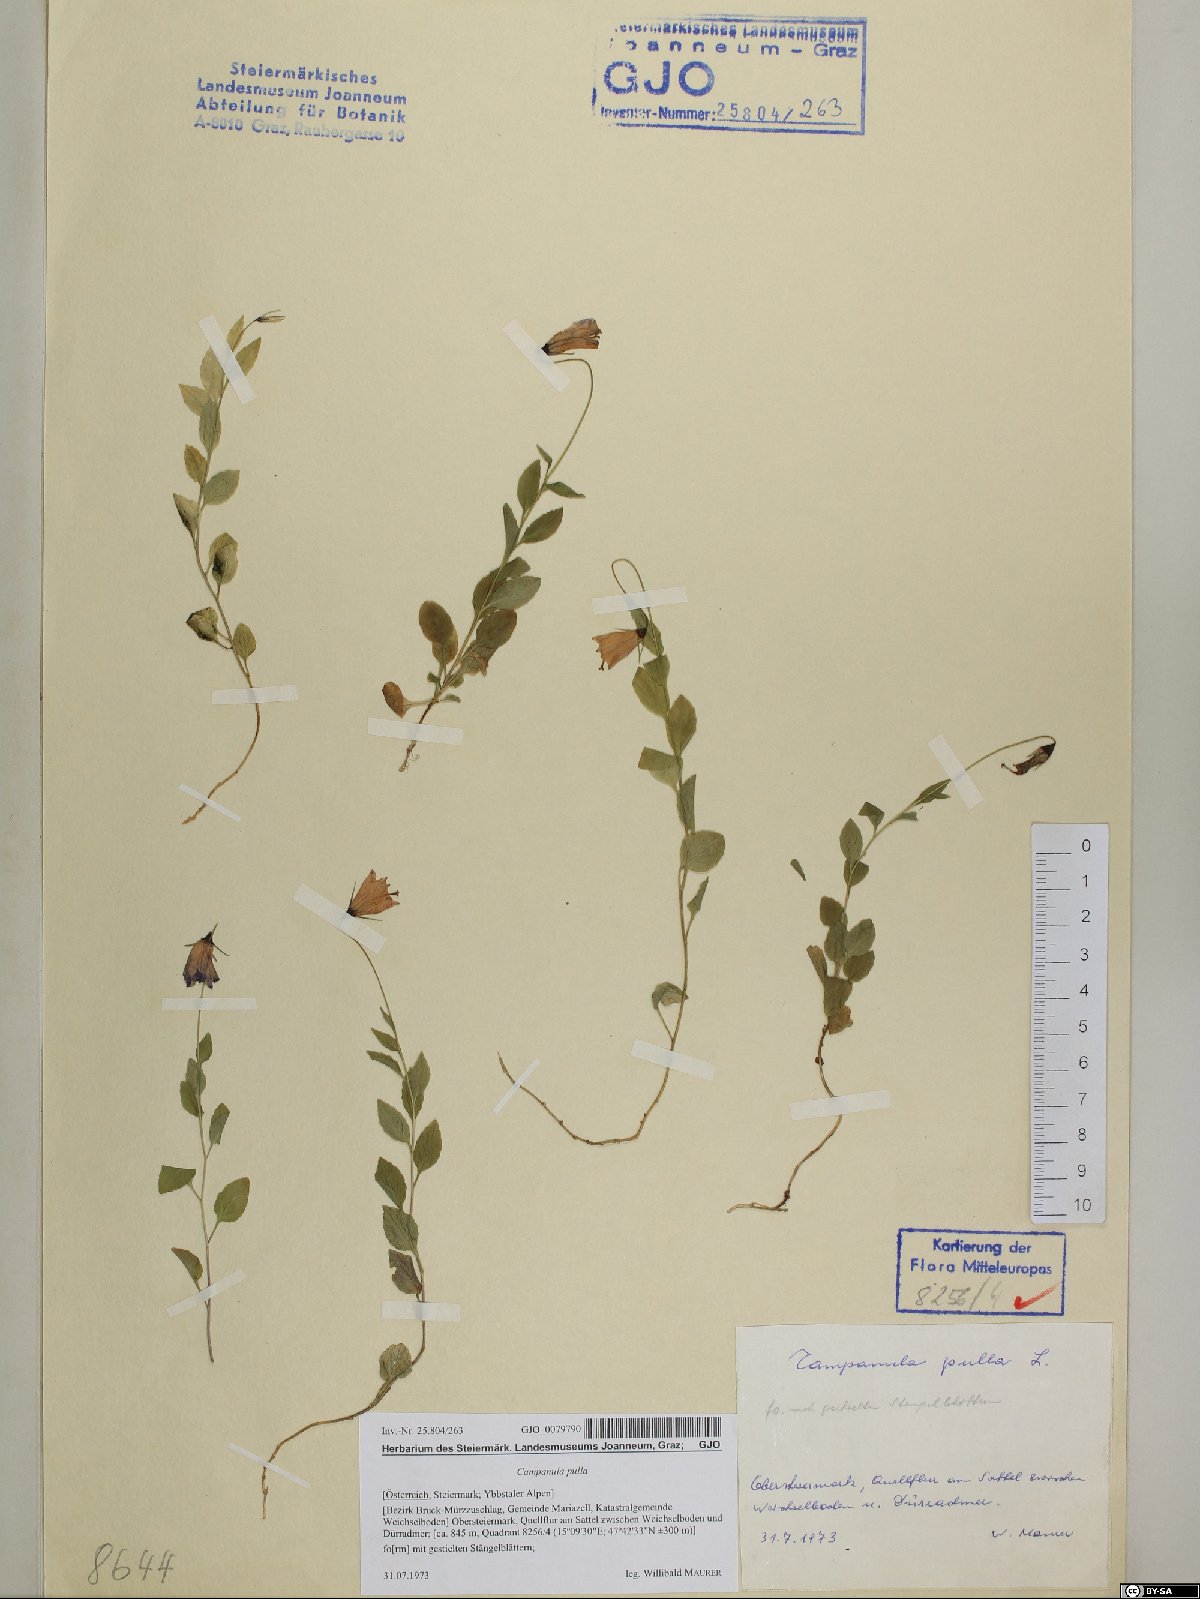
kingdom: Plantae
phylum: Tracheophyta
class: Magnoliopsida
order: Asterales
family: Campanulaceae
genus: Campanula
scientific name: Campanula pulla
